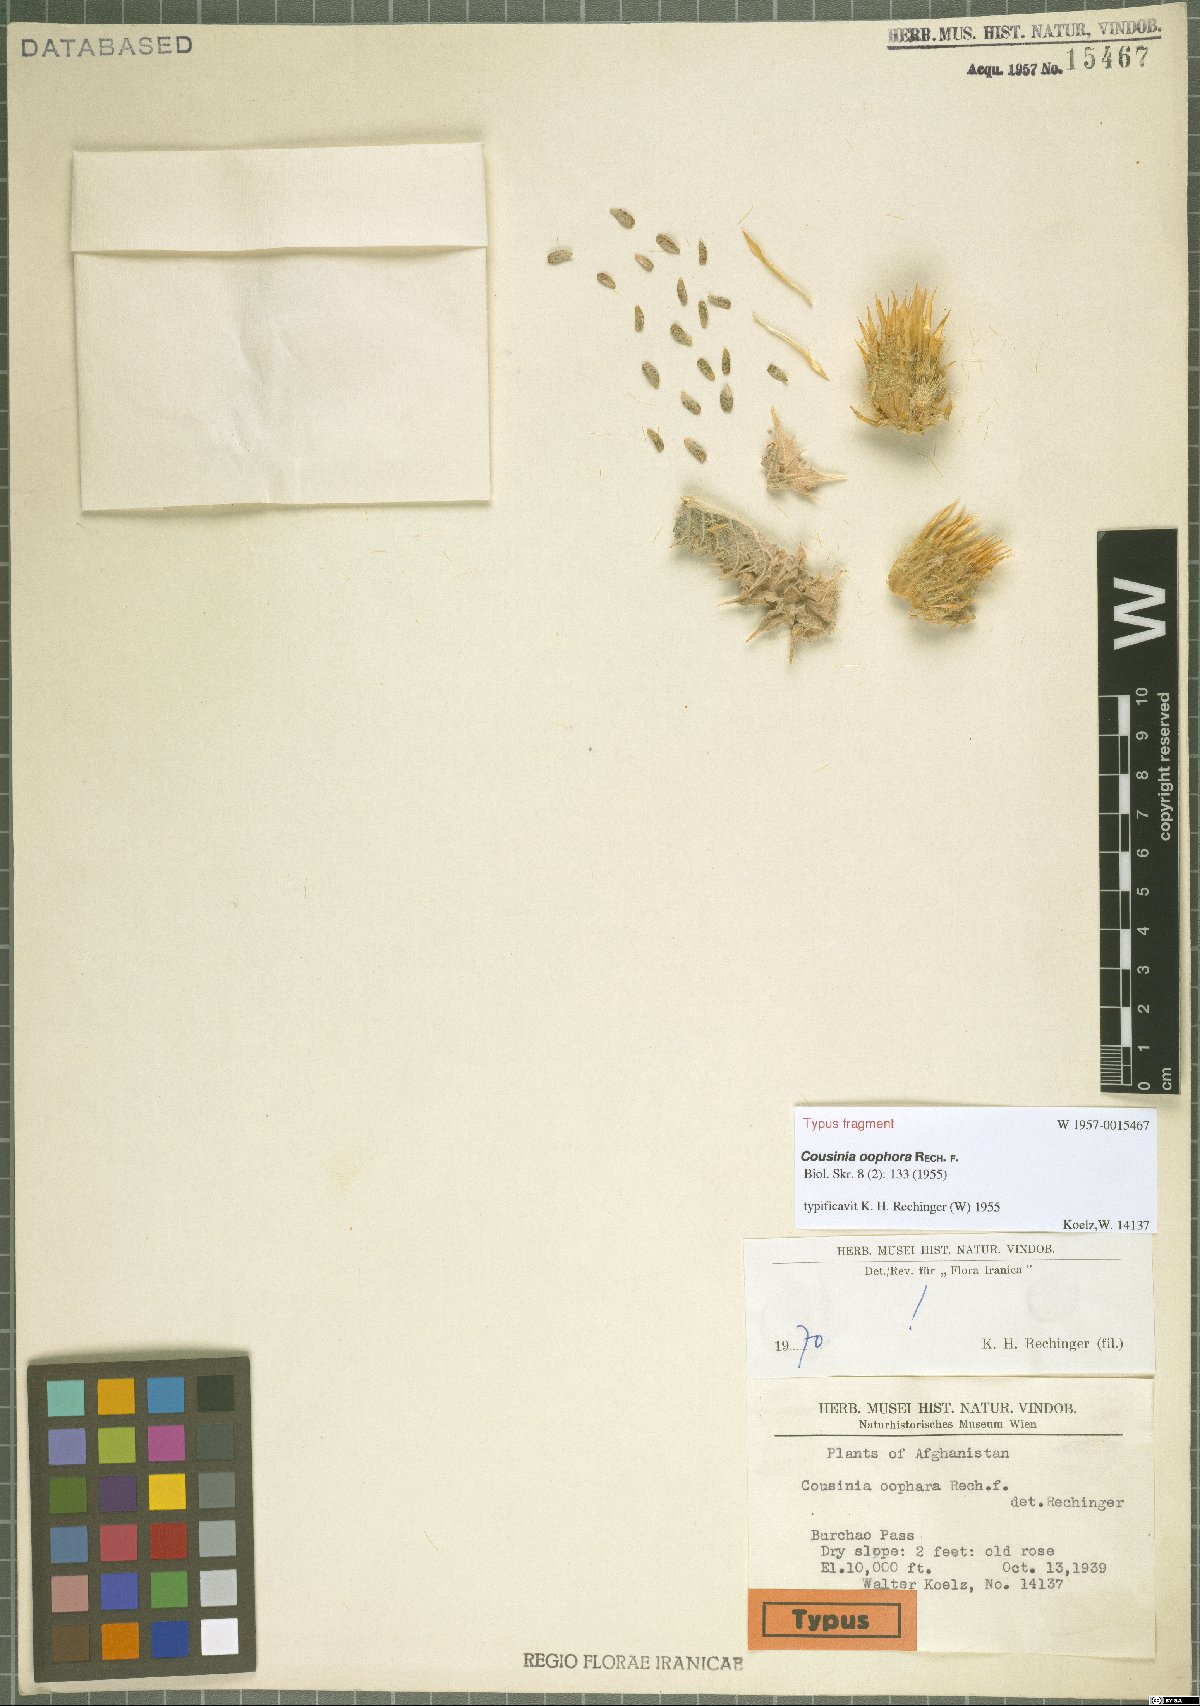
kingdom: Plantae
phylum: Tracheophyta
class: Magnoliopsida
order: Asterales
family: Asteraceae
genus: Cousinia
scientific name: Cousinia oophora
